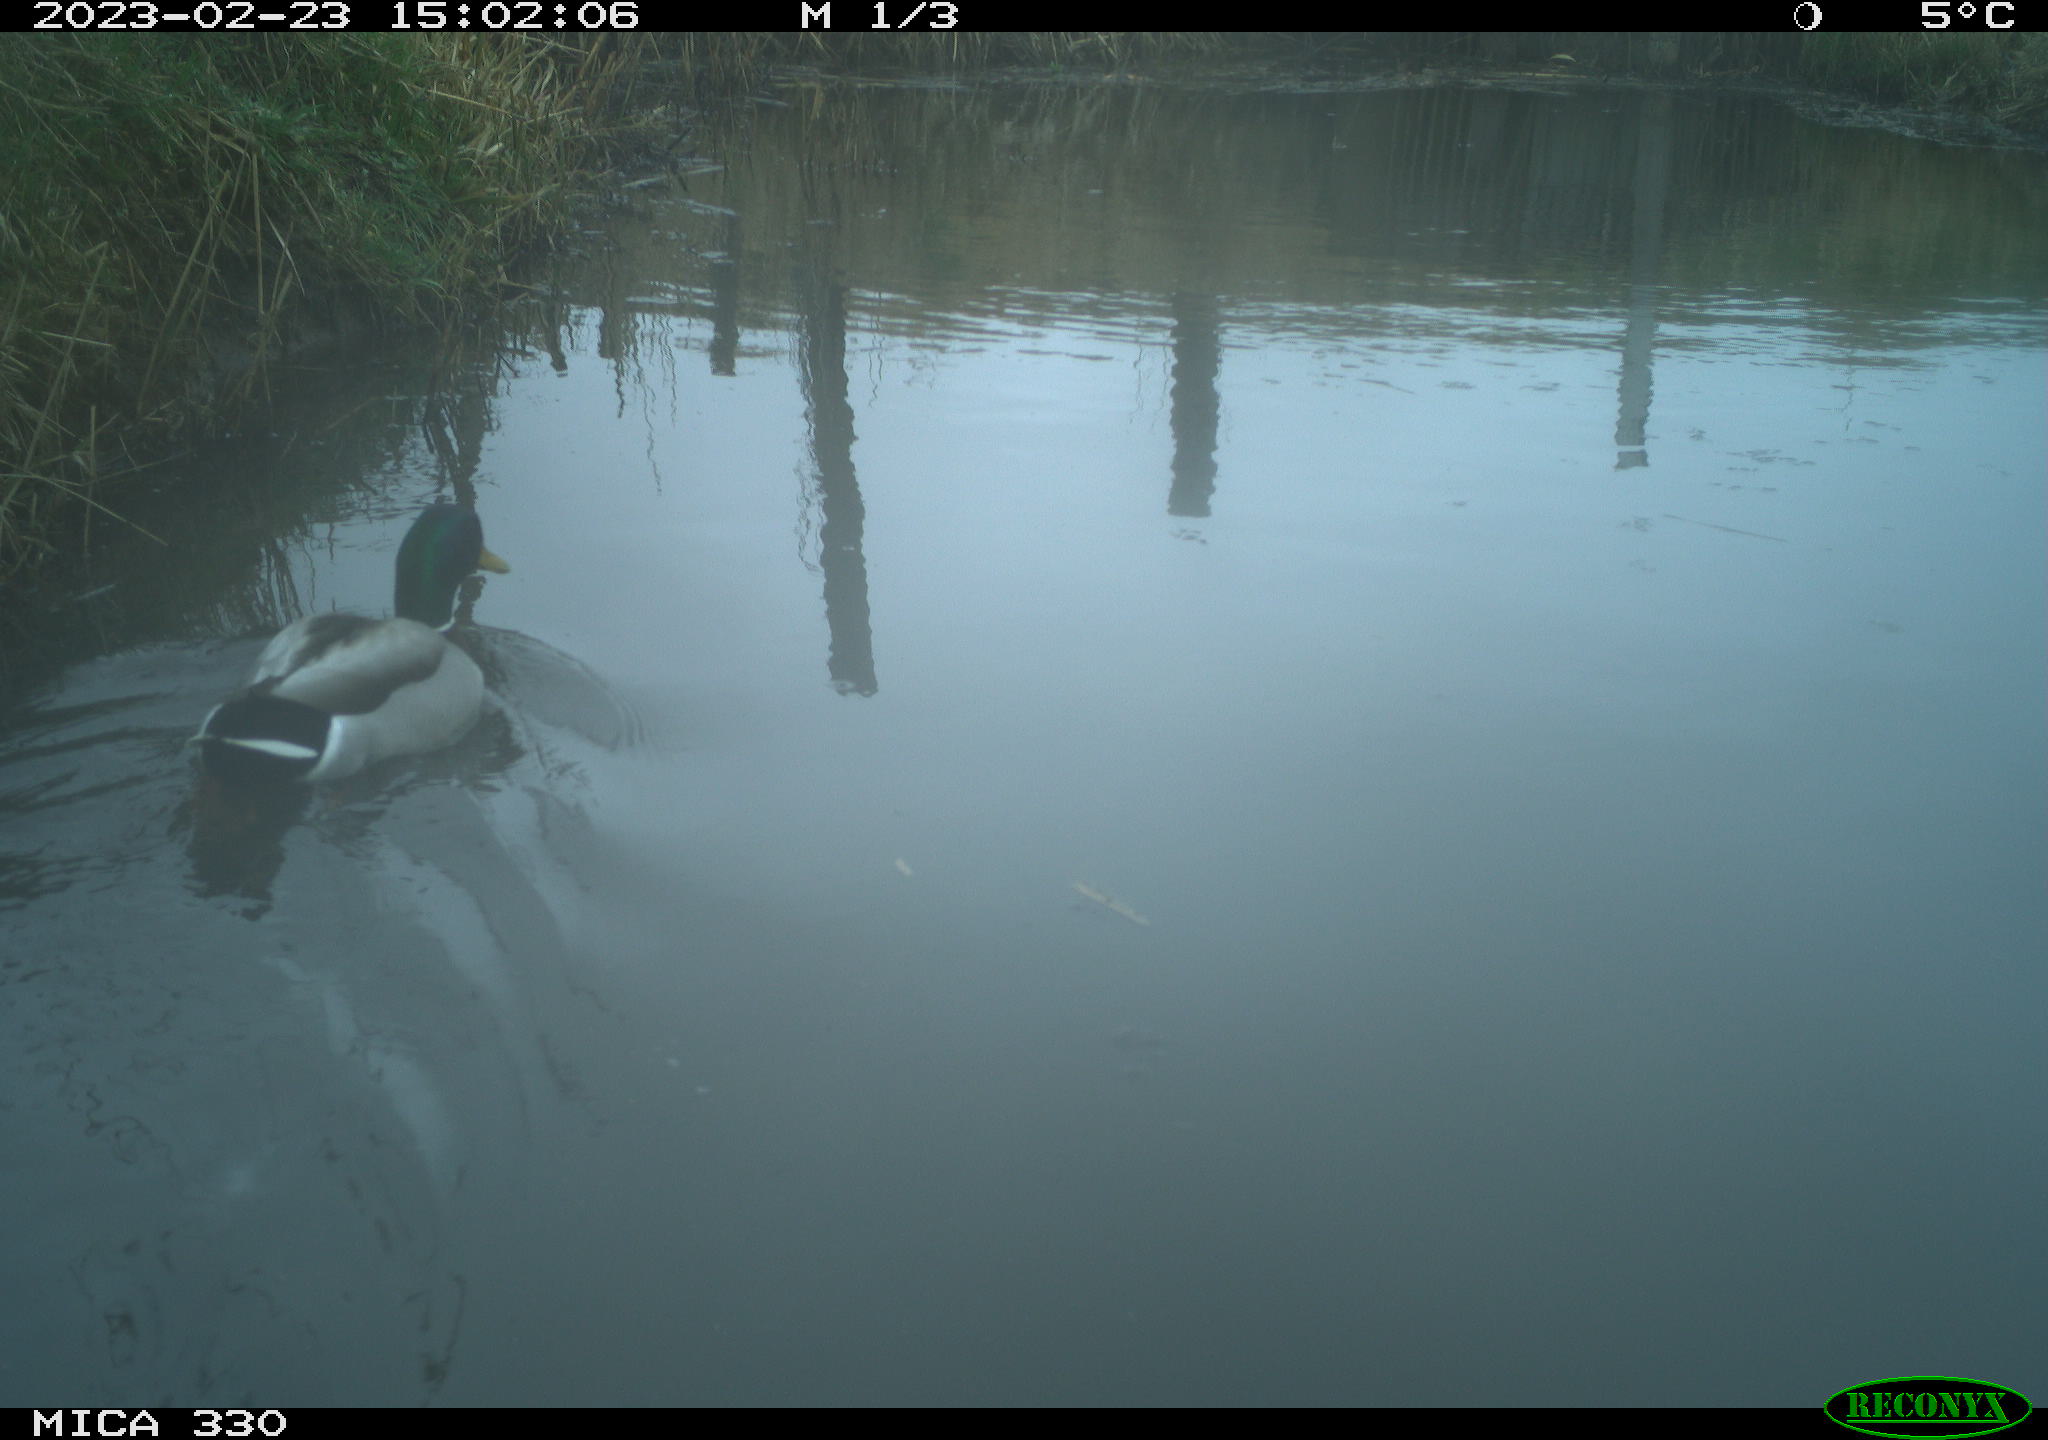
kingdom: Animalia
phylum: Chordata
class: Aves
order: Anseriformes
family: Anatidae
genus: Anas
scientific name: Anas
